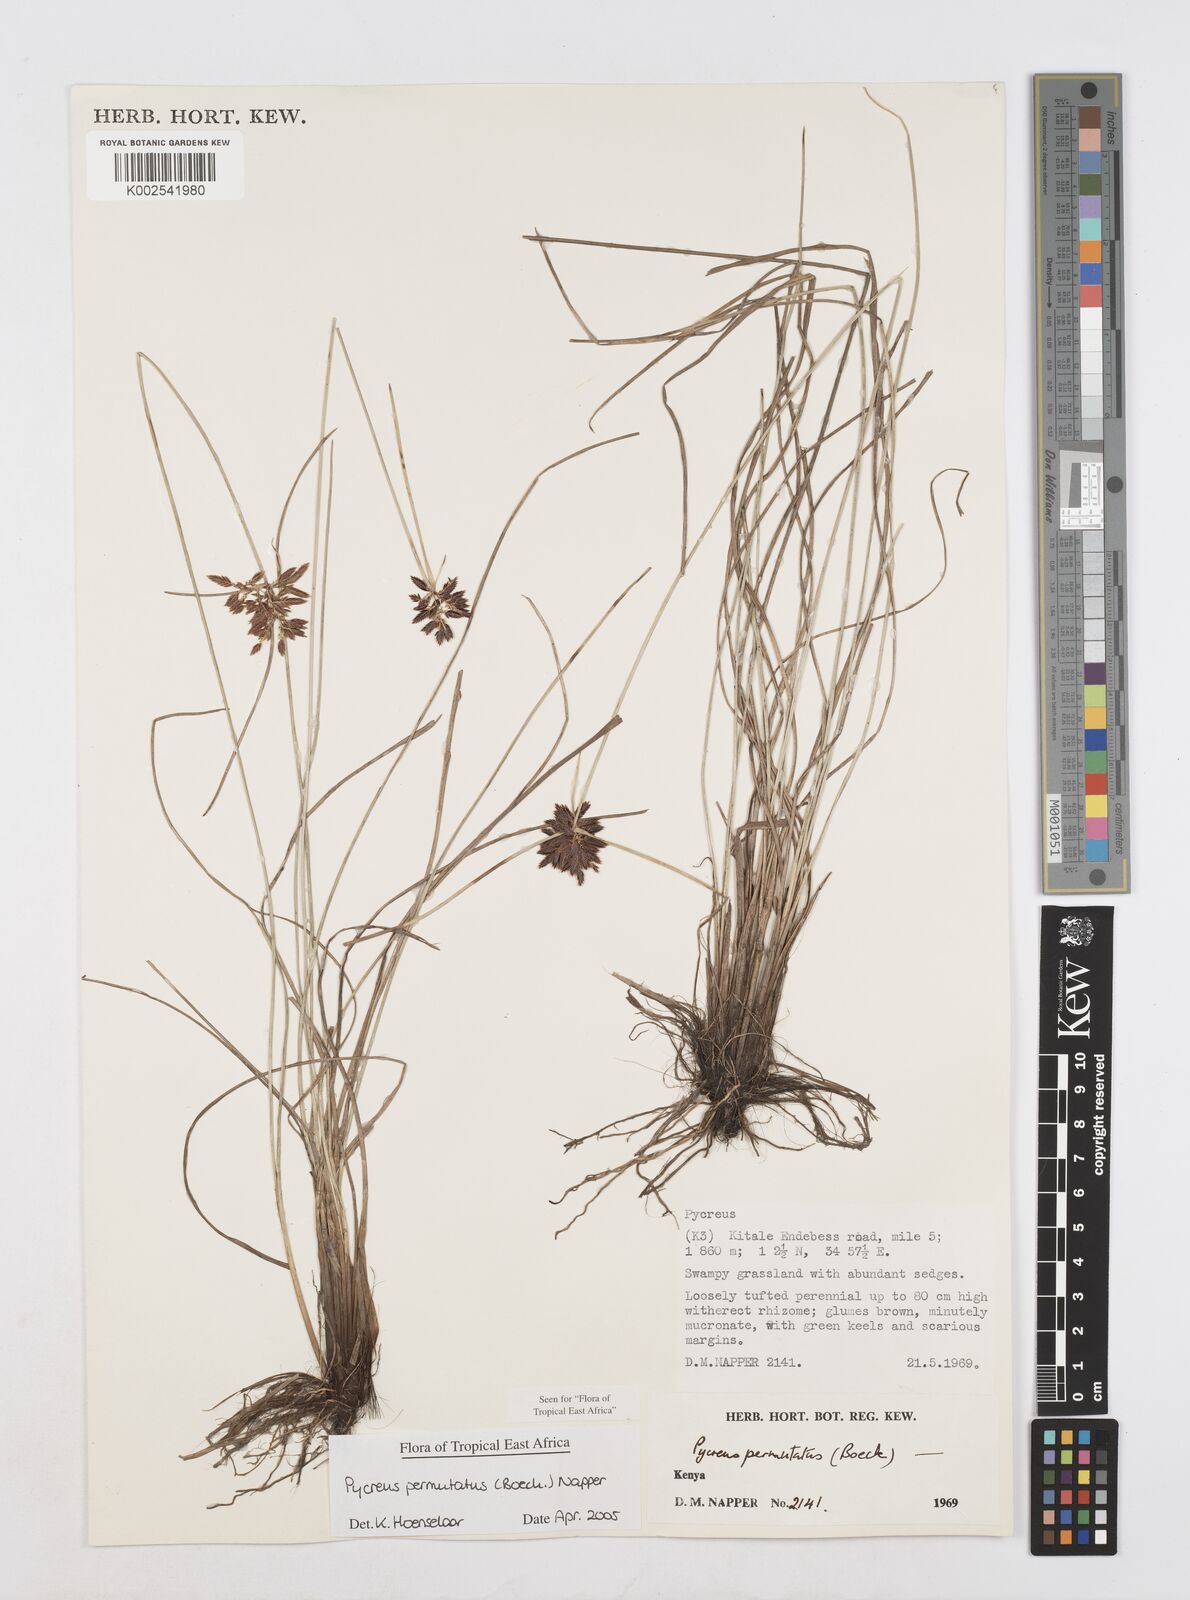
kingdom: Plantae
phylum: Tracheophyta
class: Liliopsida
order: Poales
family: Cyperaceae
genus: Cyperus
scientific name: Cyperus nigricans
